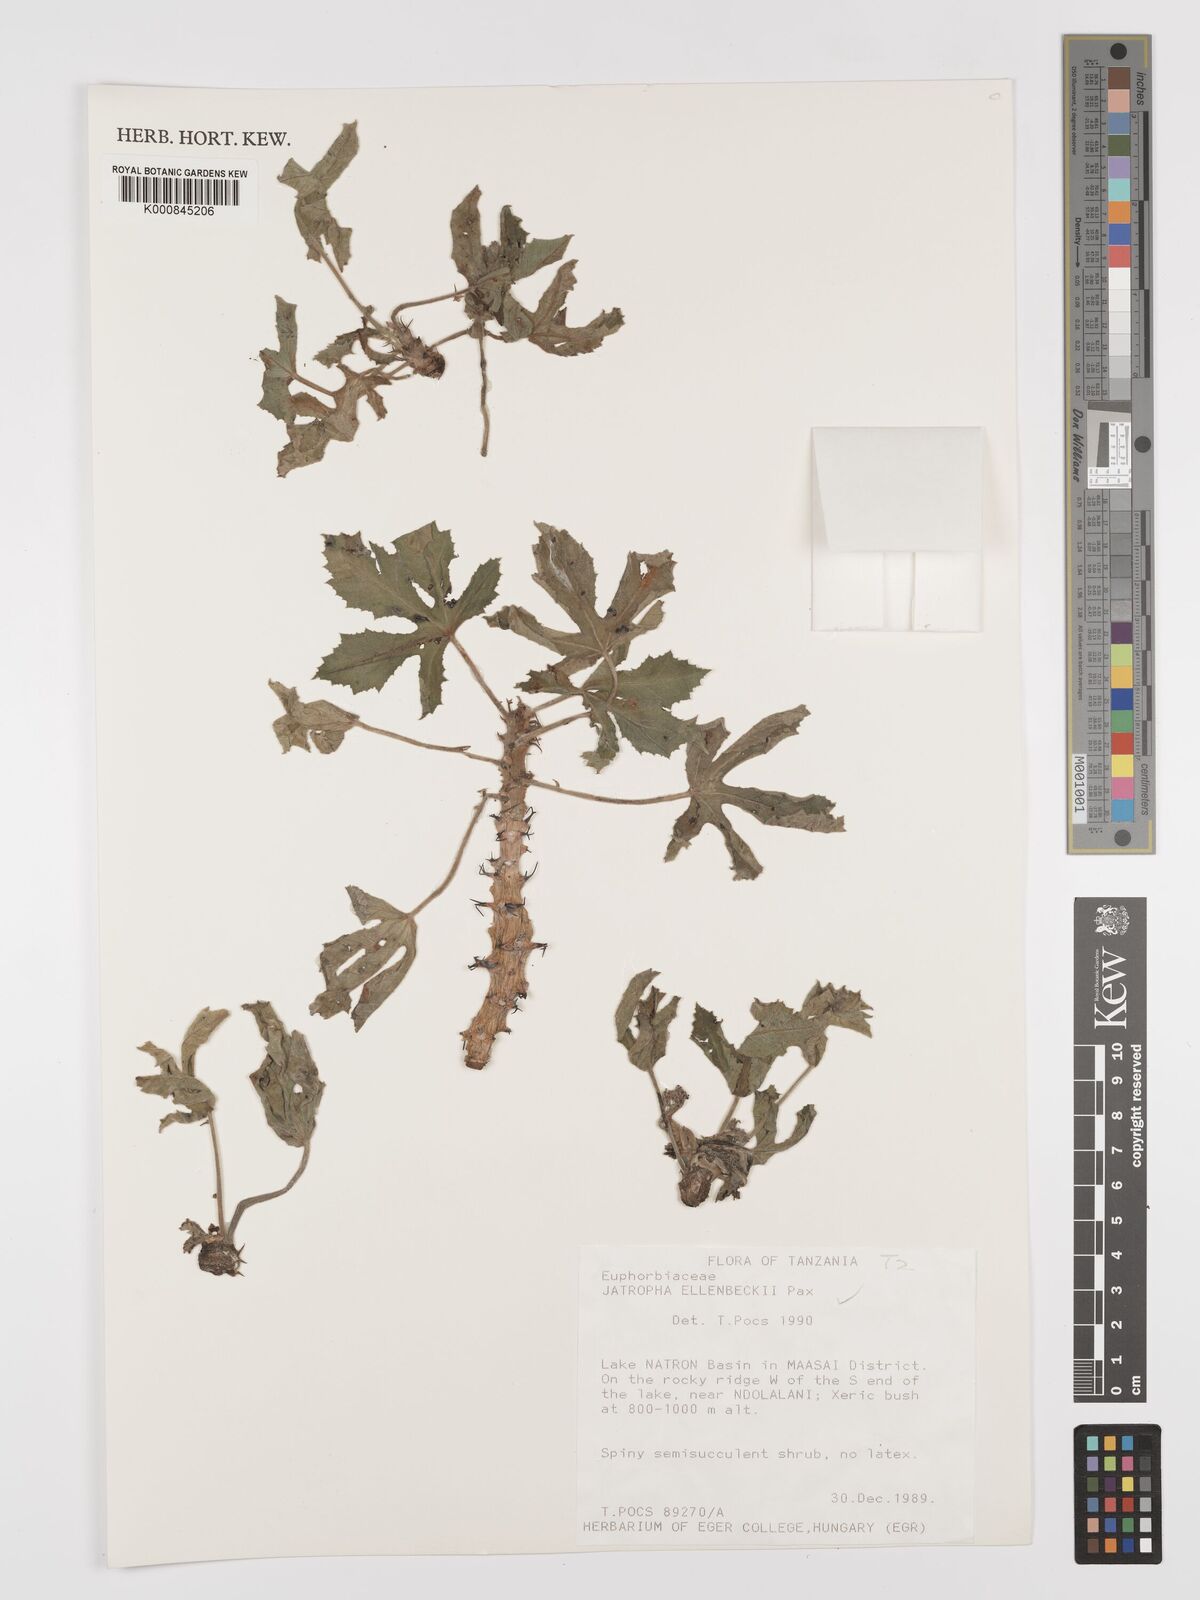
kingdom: Plantae
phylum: Tracheophyta
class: Magnoliopsida
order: Malpighiales
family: Euphorbiaceae
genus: Jatropha
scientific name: Jatropha ellenbeckii
